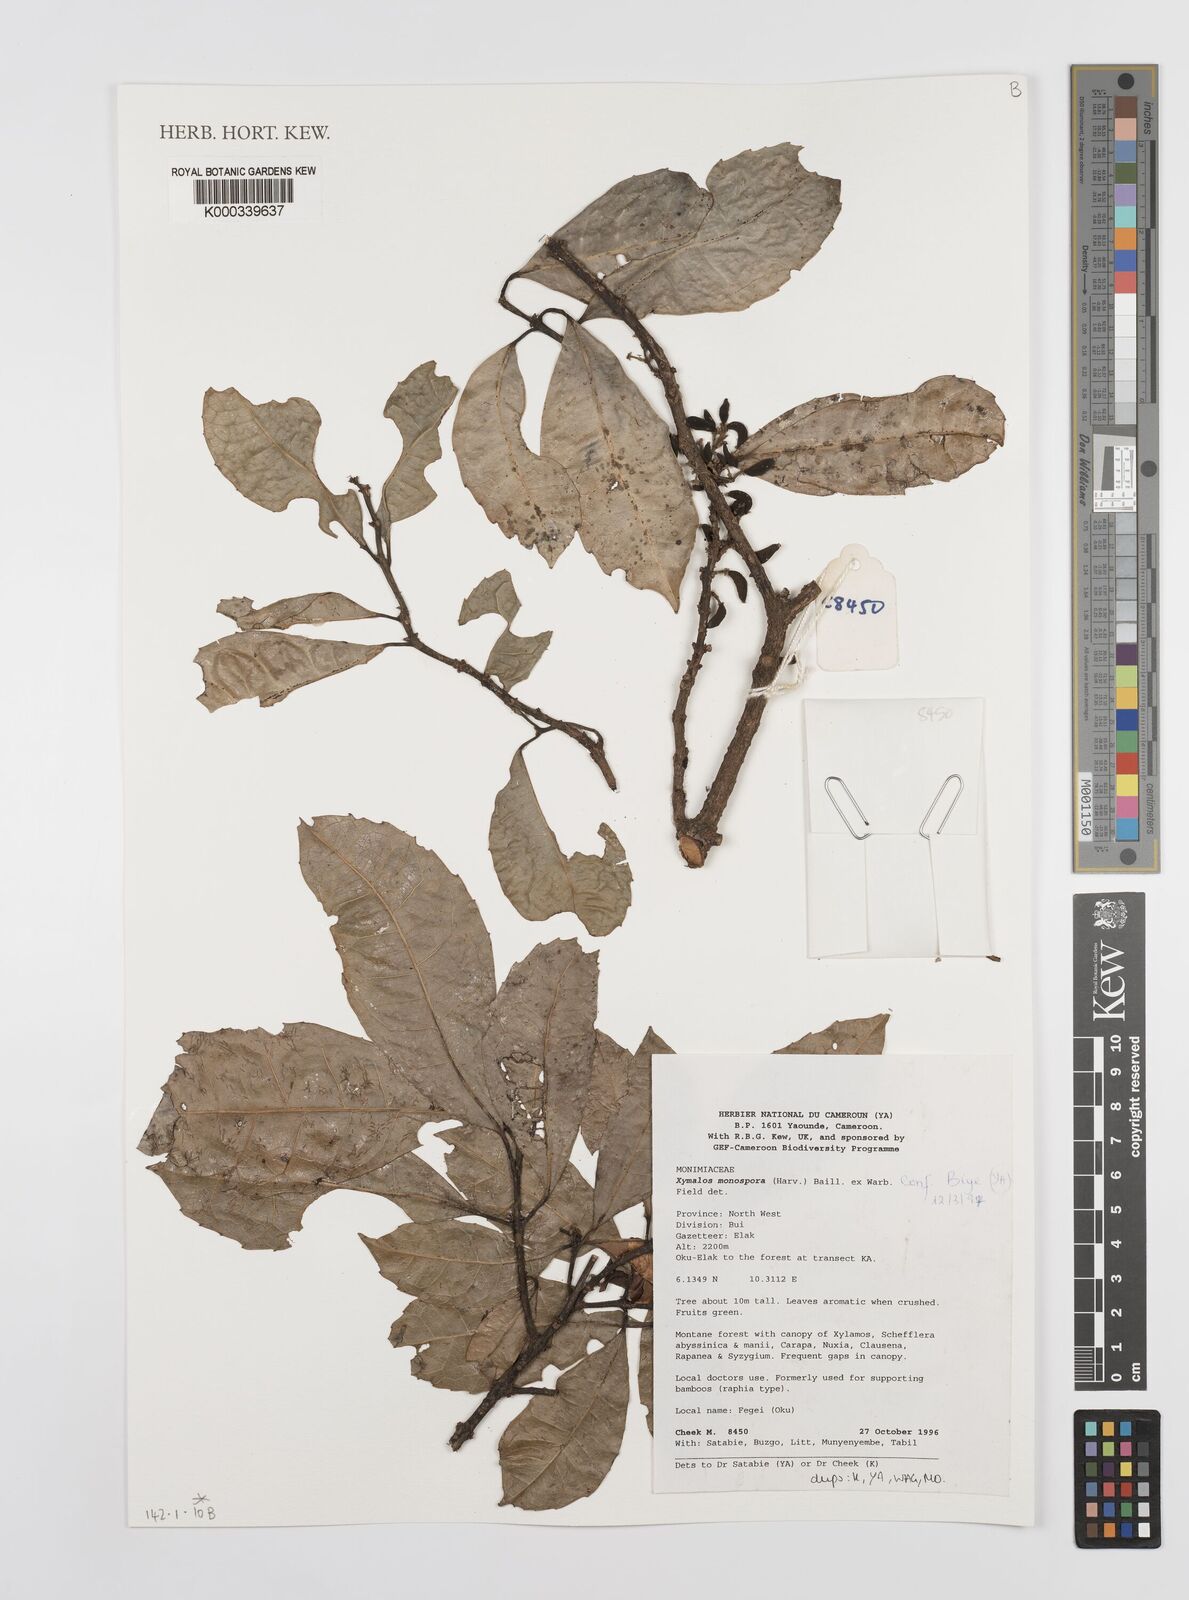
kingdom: Plantae
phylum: Tracheophyta
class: Magnoliopsida
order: Laurales
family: Monimiaceae
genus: Xymalos
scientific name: Xymalos
